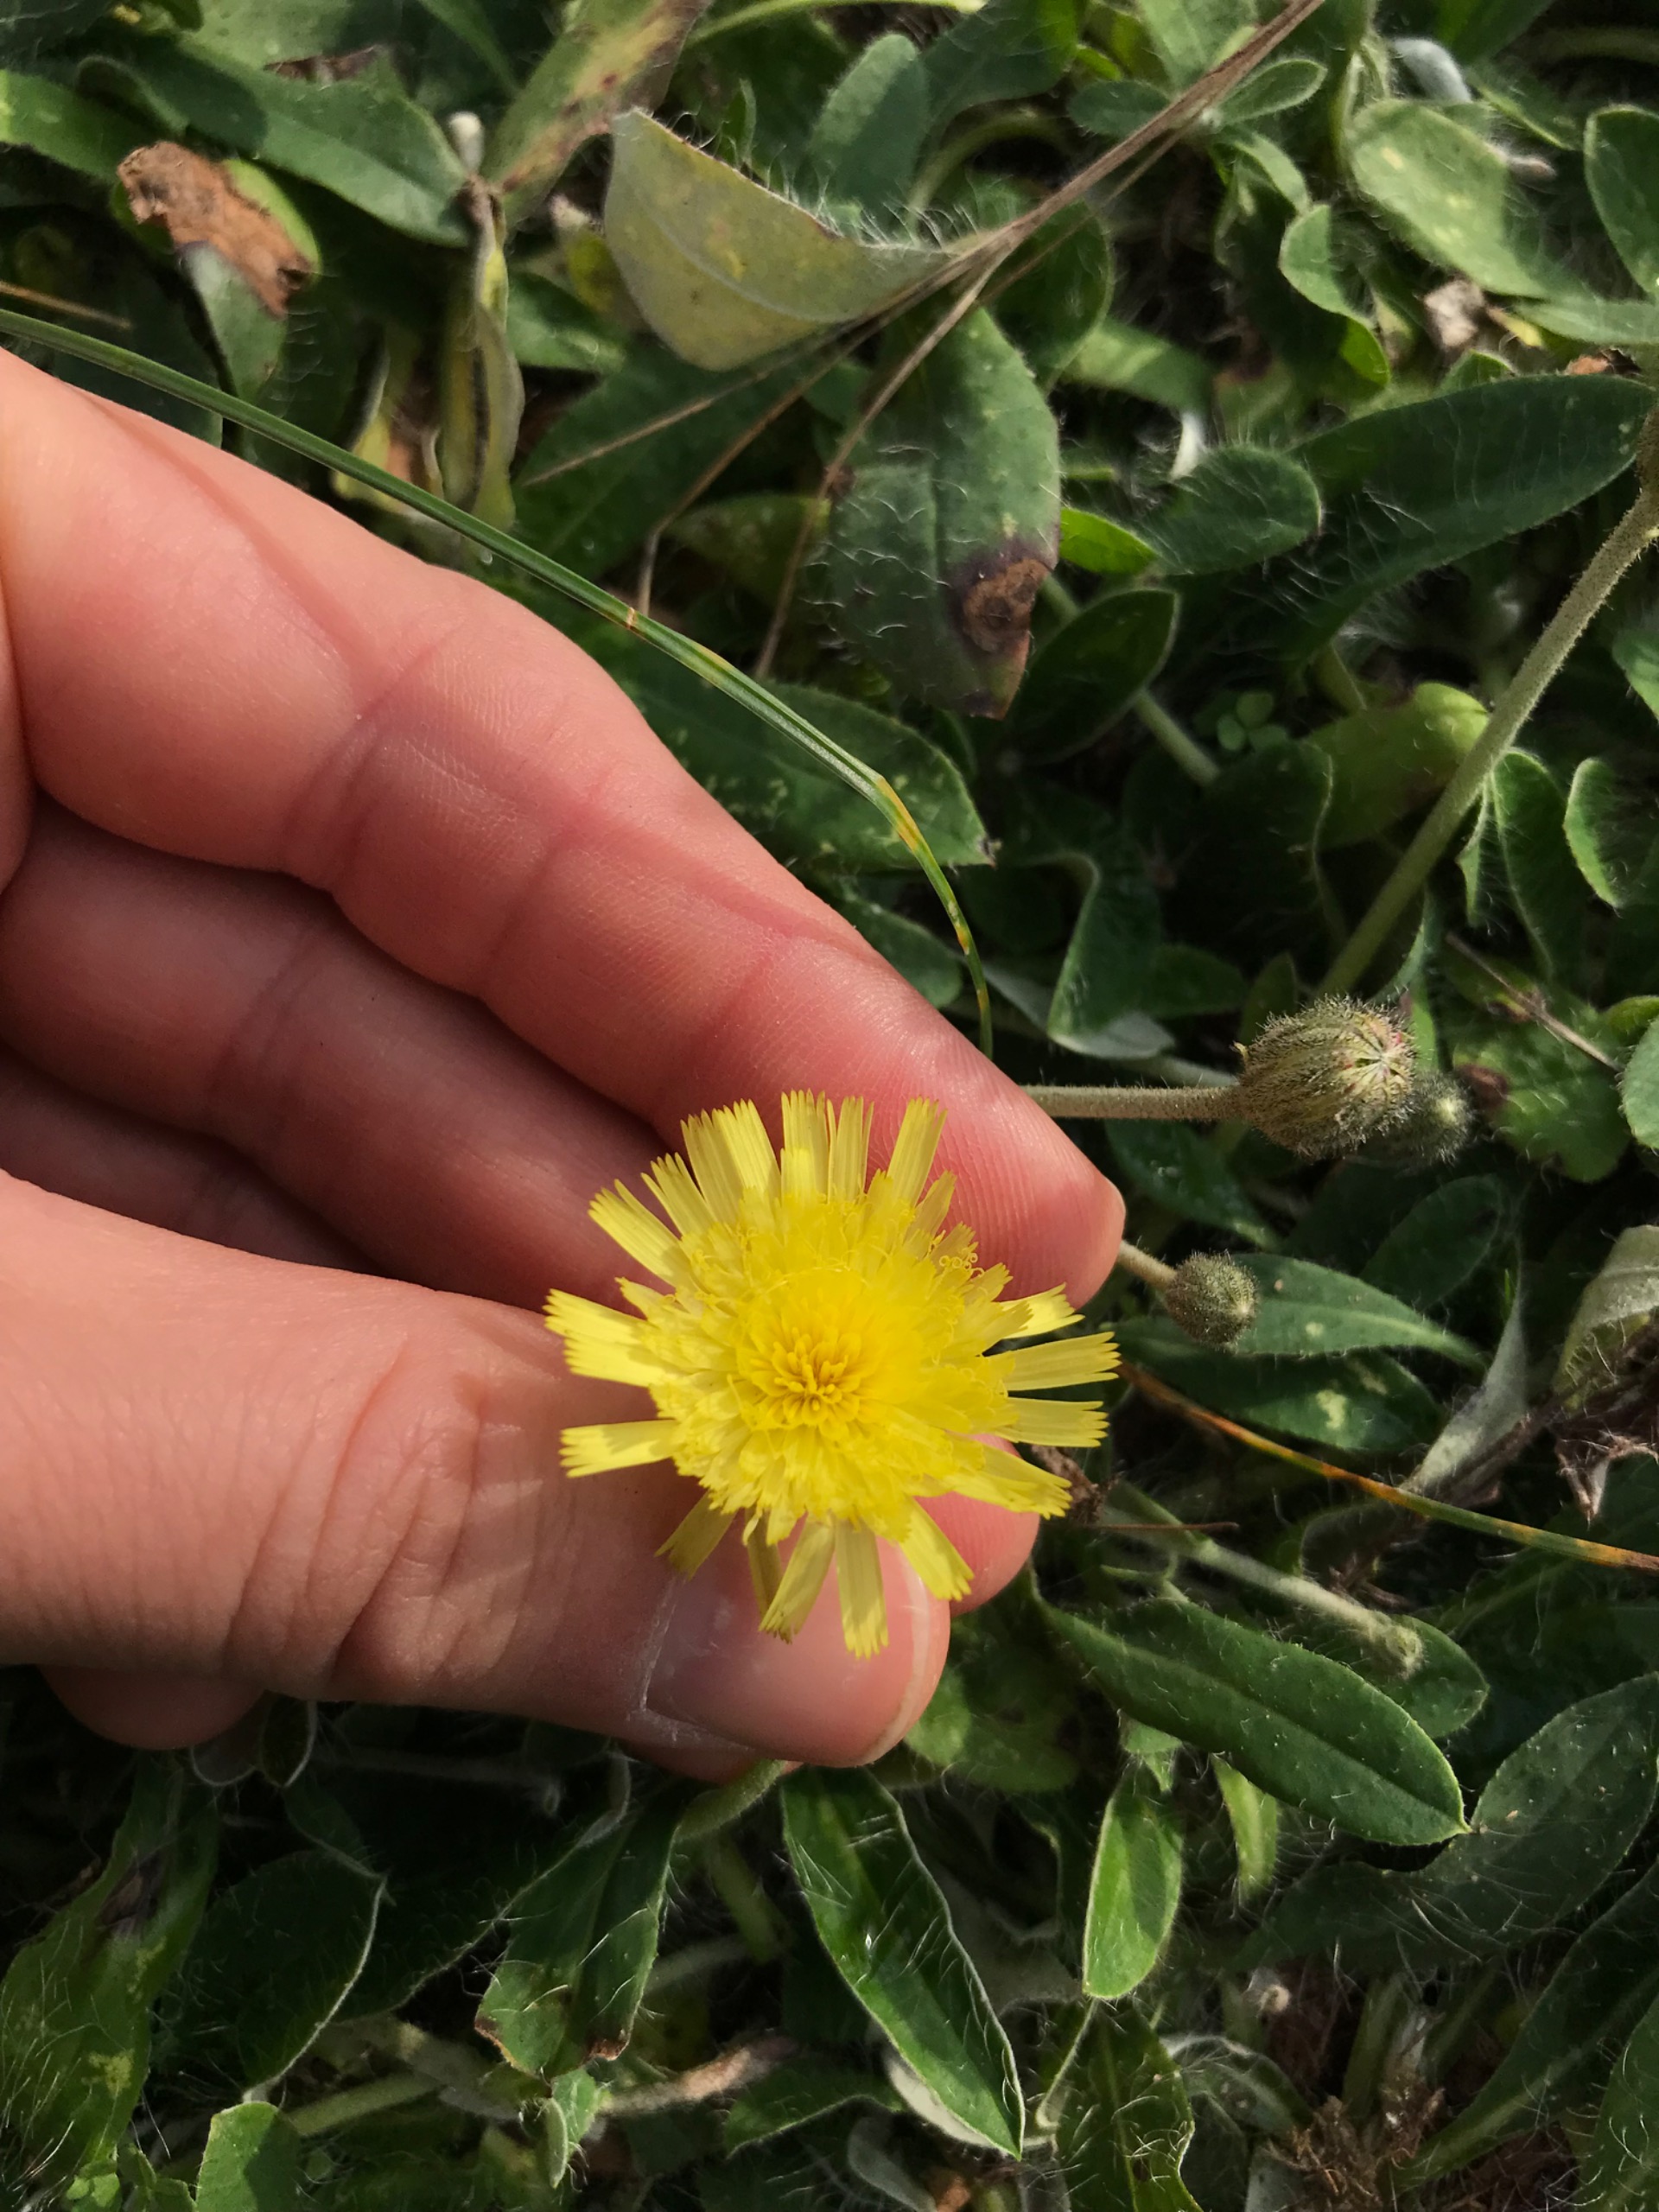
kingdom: Plantae
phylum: Tracheophyta
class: Magnoliopsida
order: Asterales
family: Asteraceae
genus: Pilosella
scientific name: Pilosella officinarum
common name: Håret høgeurt
